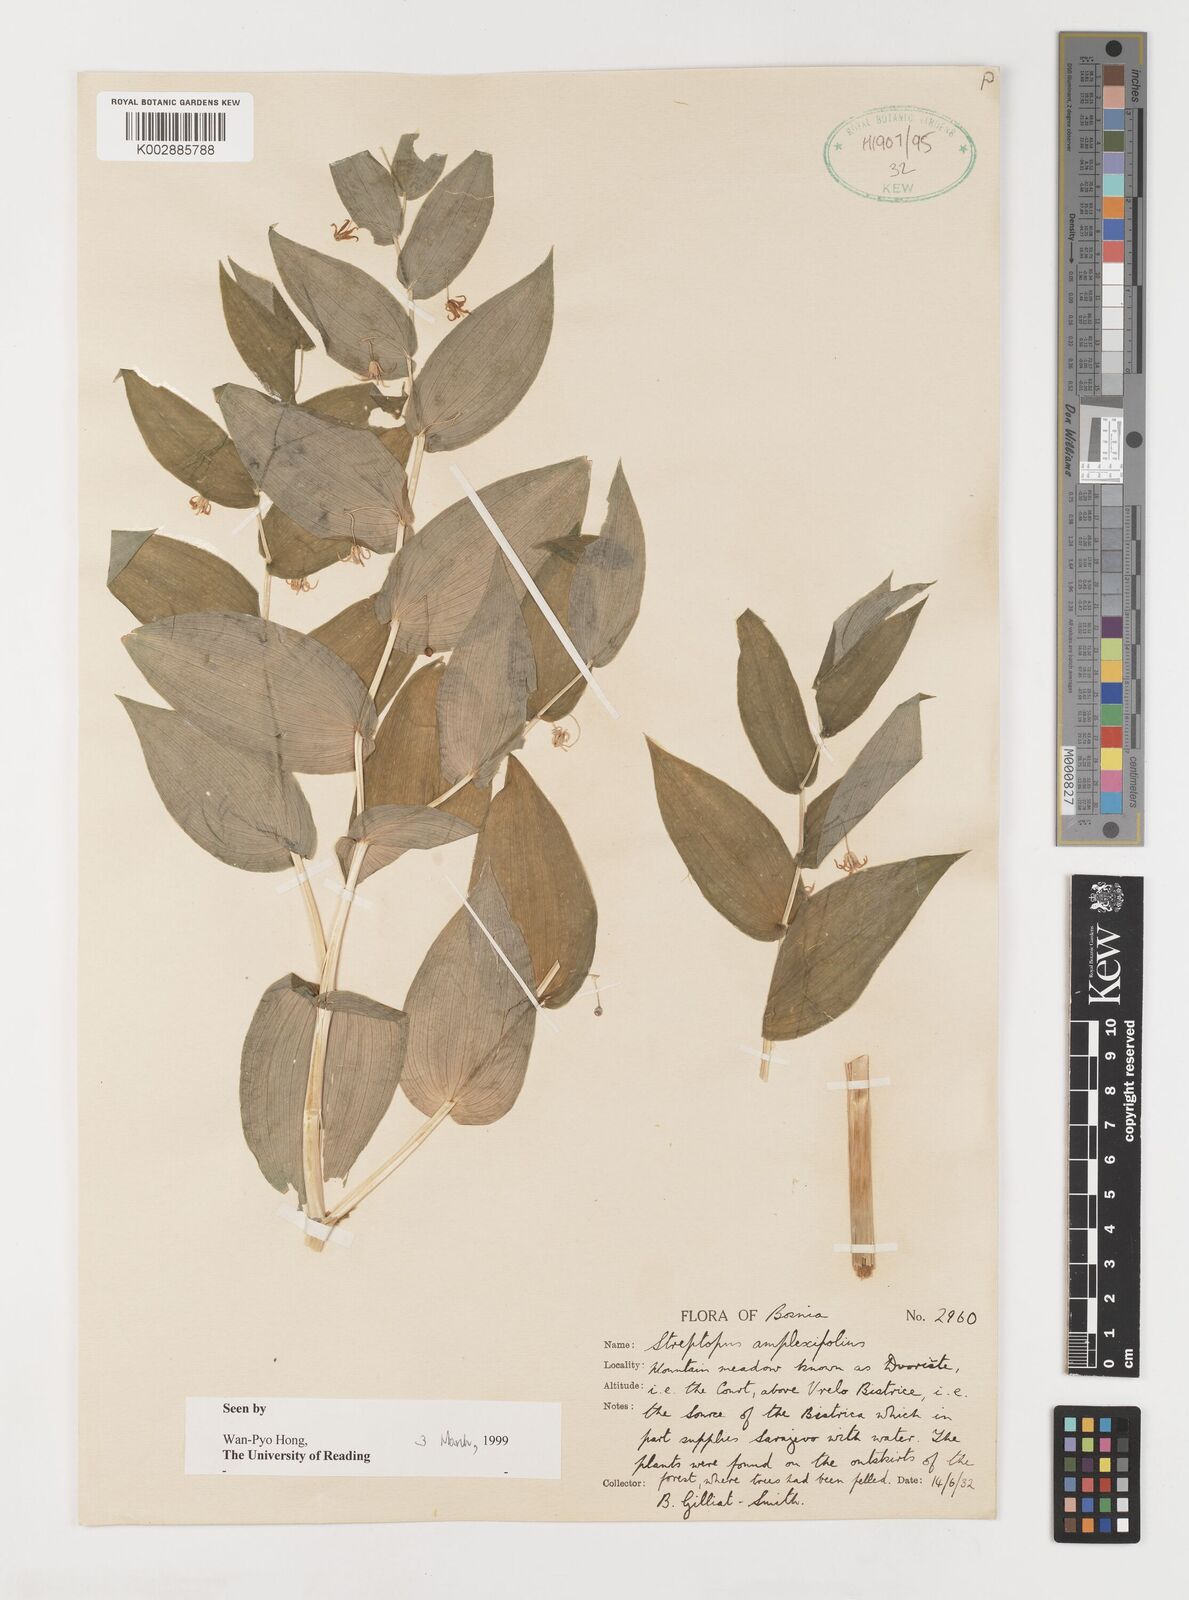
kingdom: Plantae
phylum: Tracheophyta
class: Liliopsida
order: Liliales
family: Liliaceae
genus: Streptopus
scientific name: Streptopus amplexifolius
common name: Clasp twisted stalk
